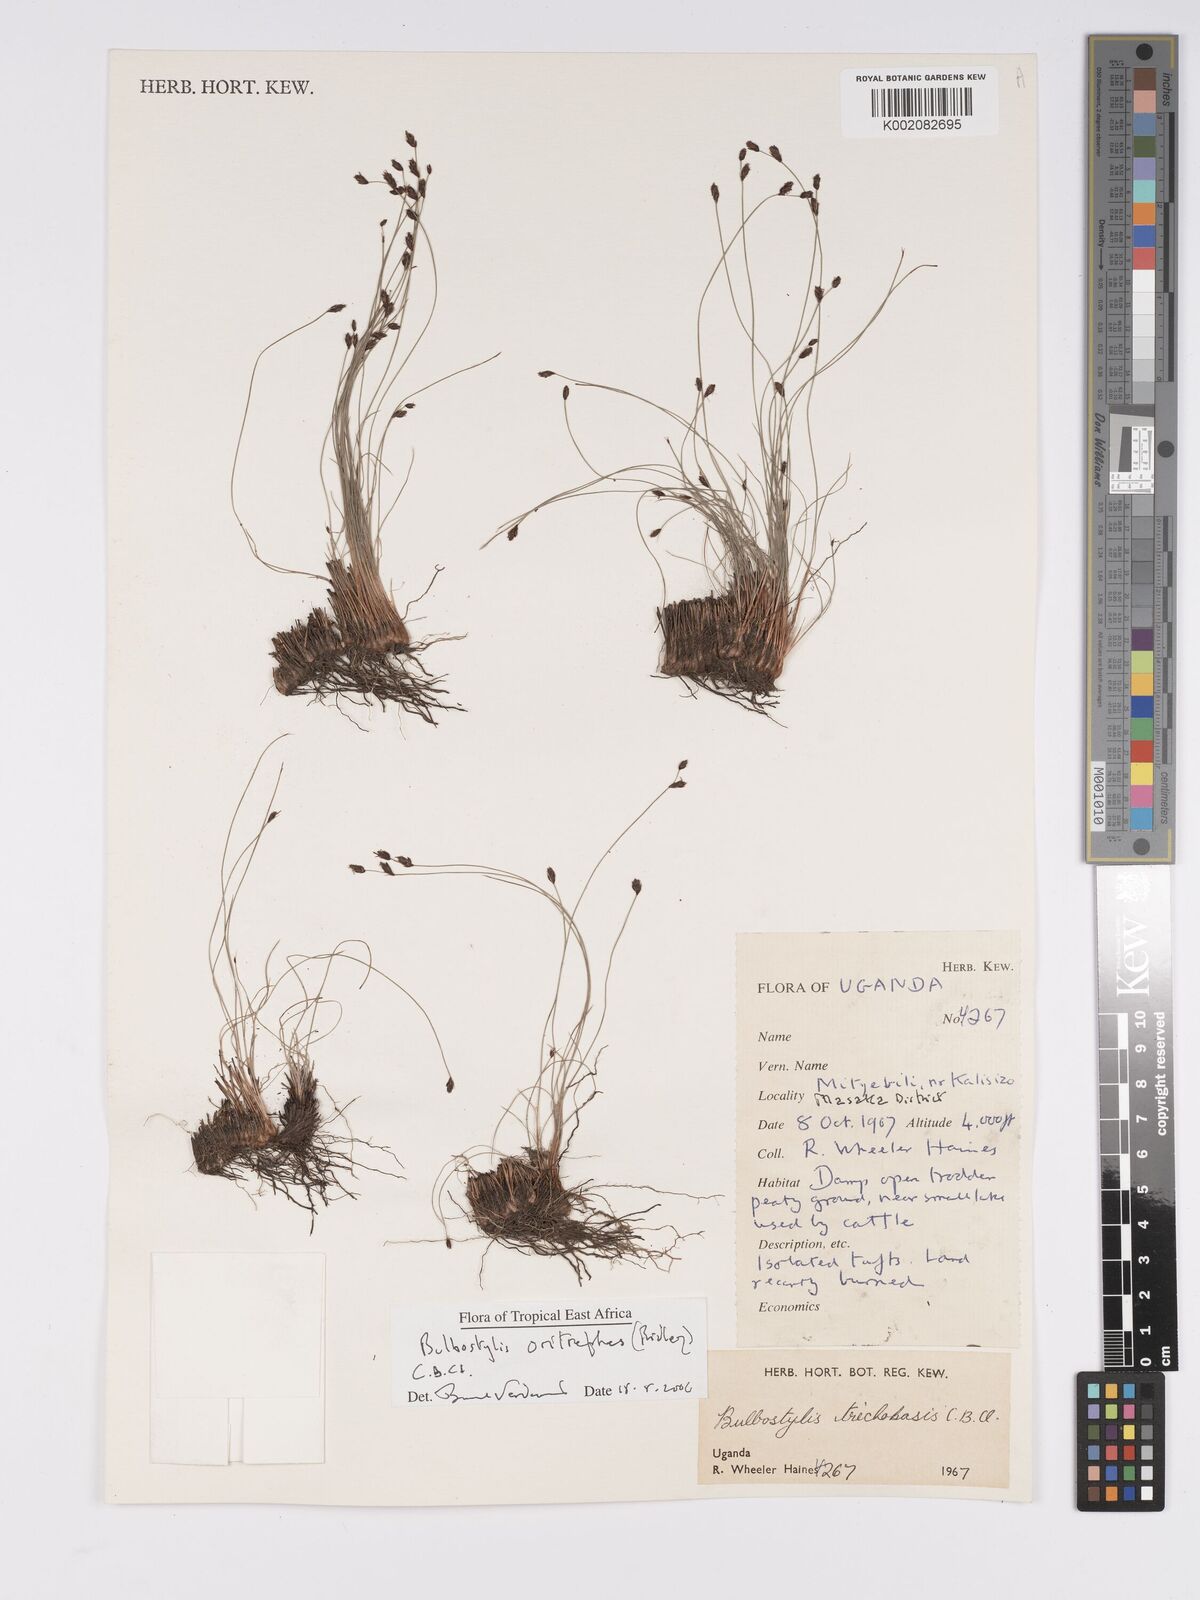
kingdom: Plantae
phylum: Tracheophyta
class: Liliopsida
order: Poales
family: Cyperaceae
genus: Bulbostylis
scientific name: Bulbostylis oritrephes
